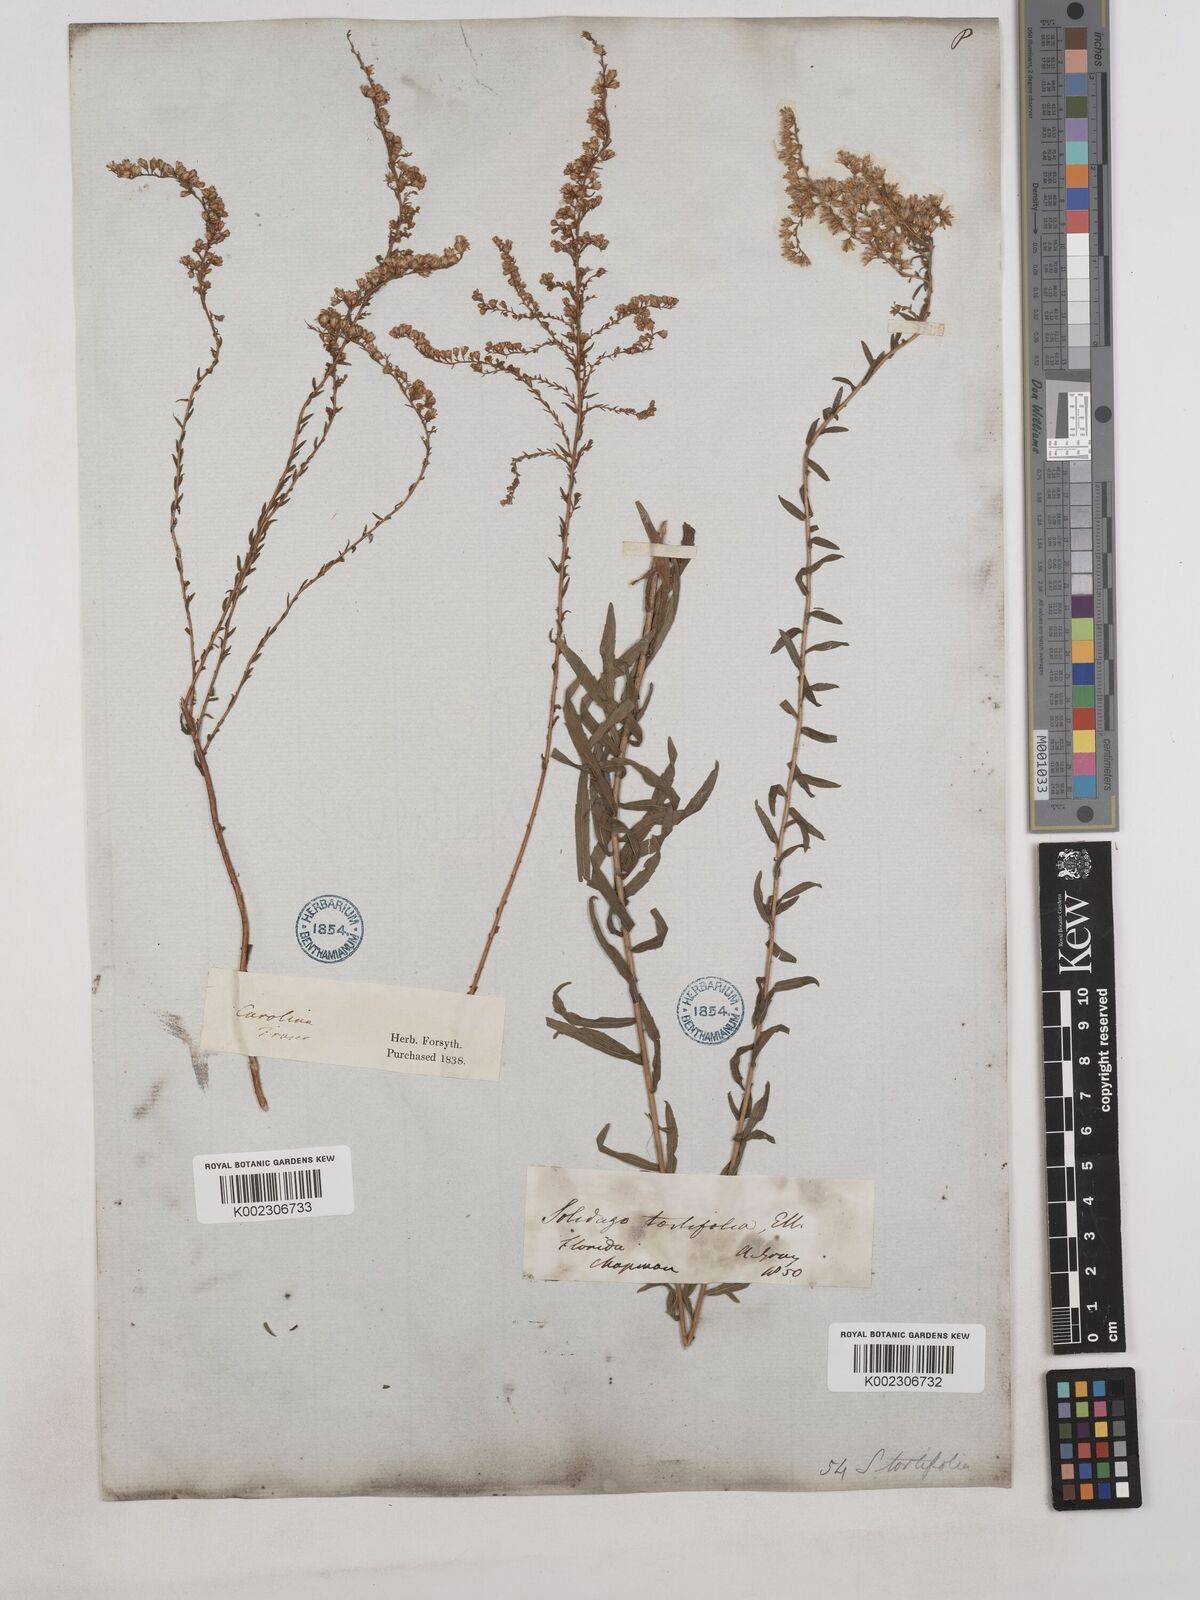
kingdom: Plantae
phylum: Tracheophyta
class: Magnoliopsida
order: Asterales
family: Asteraceae
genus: Solidago
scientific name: Solidago tortifolia
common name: Twisted-leaf goldenrod
